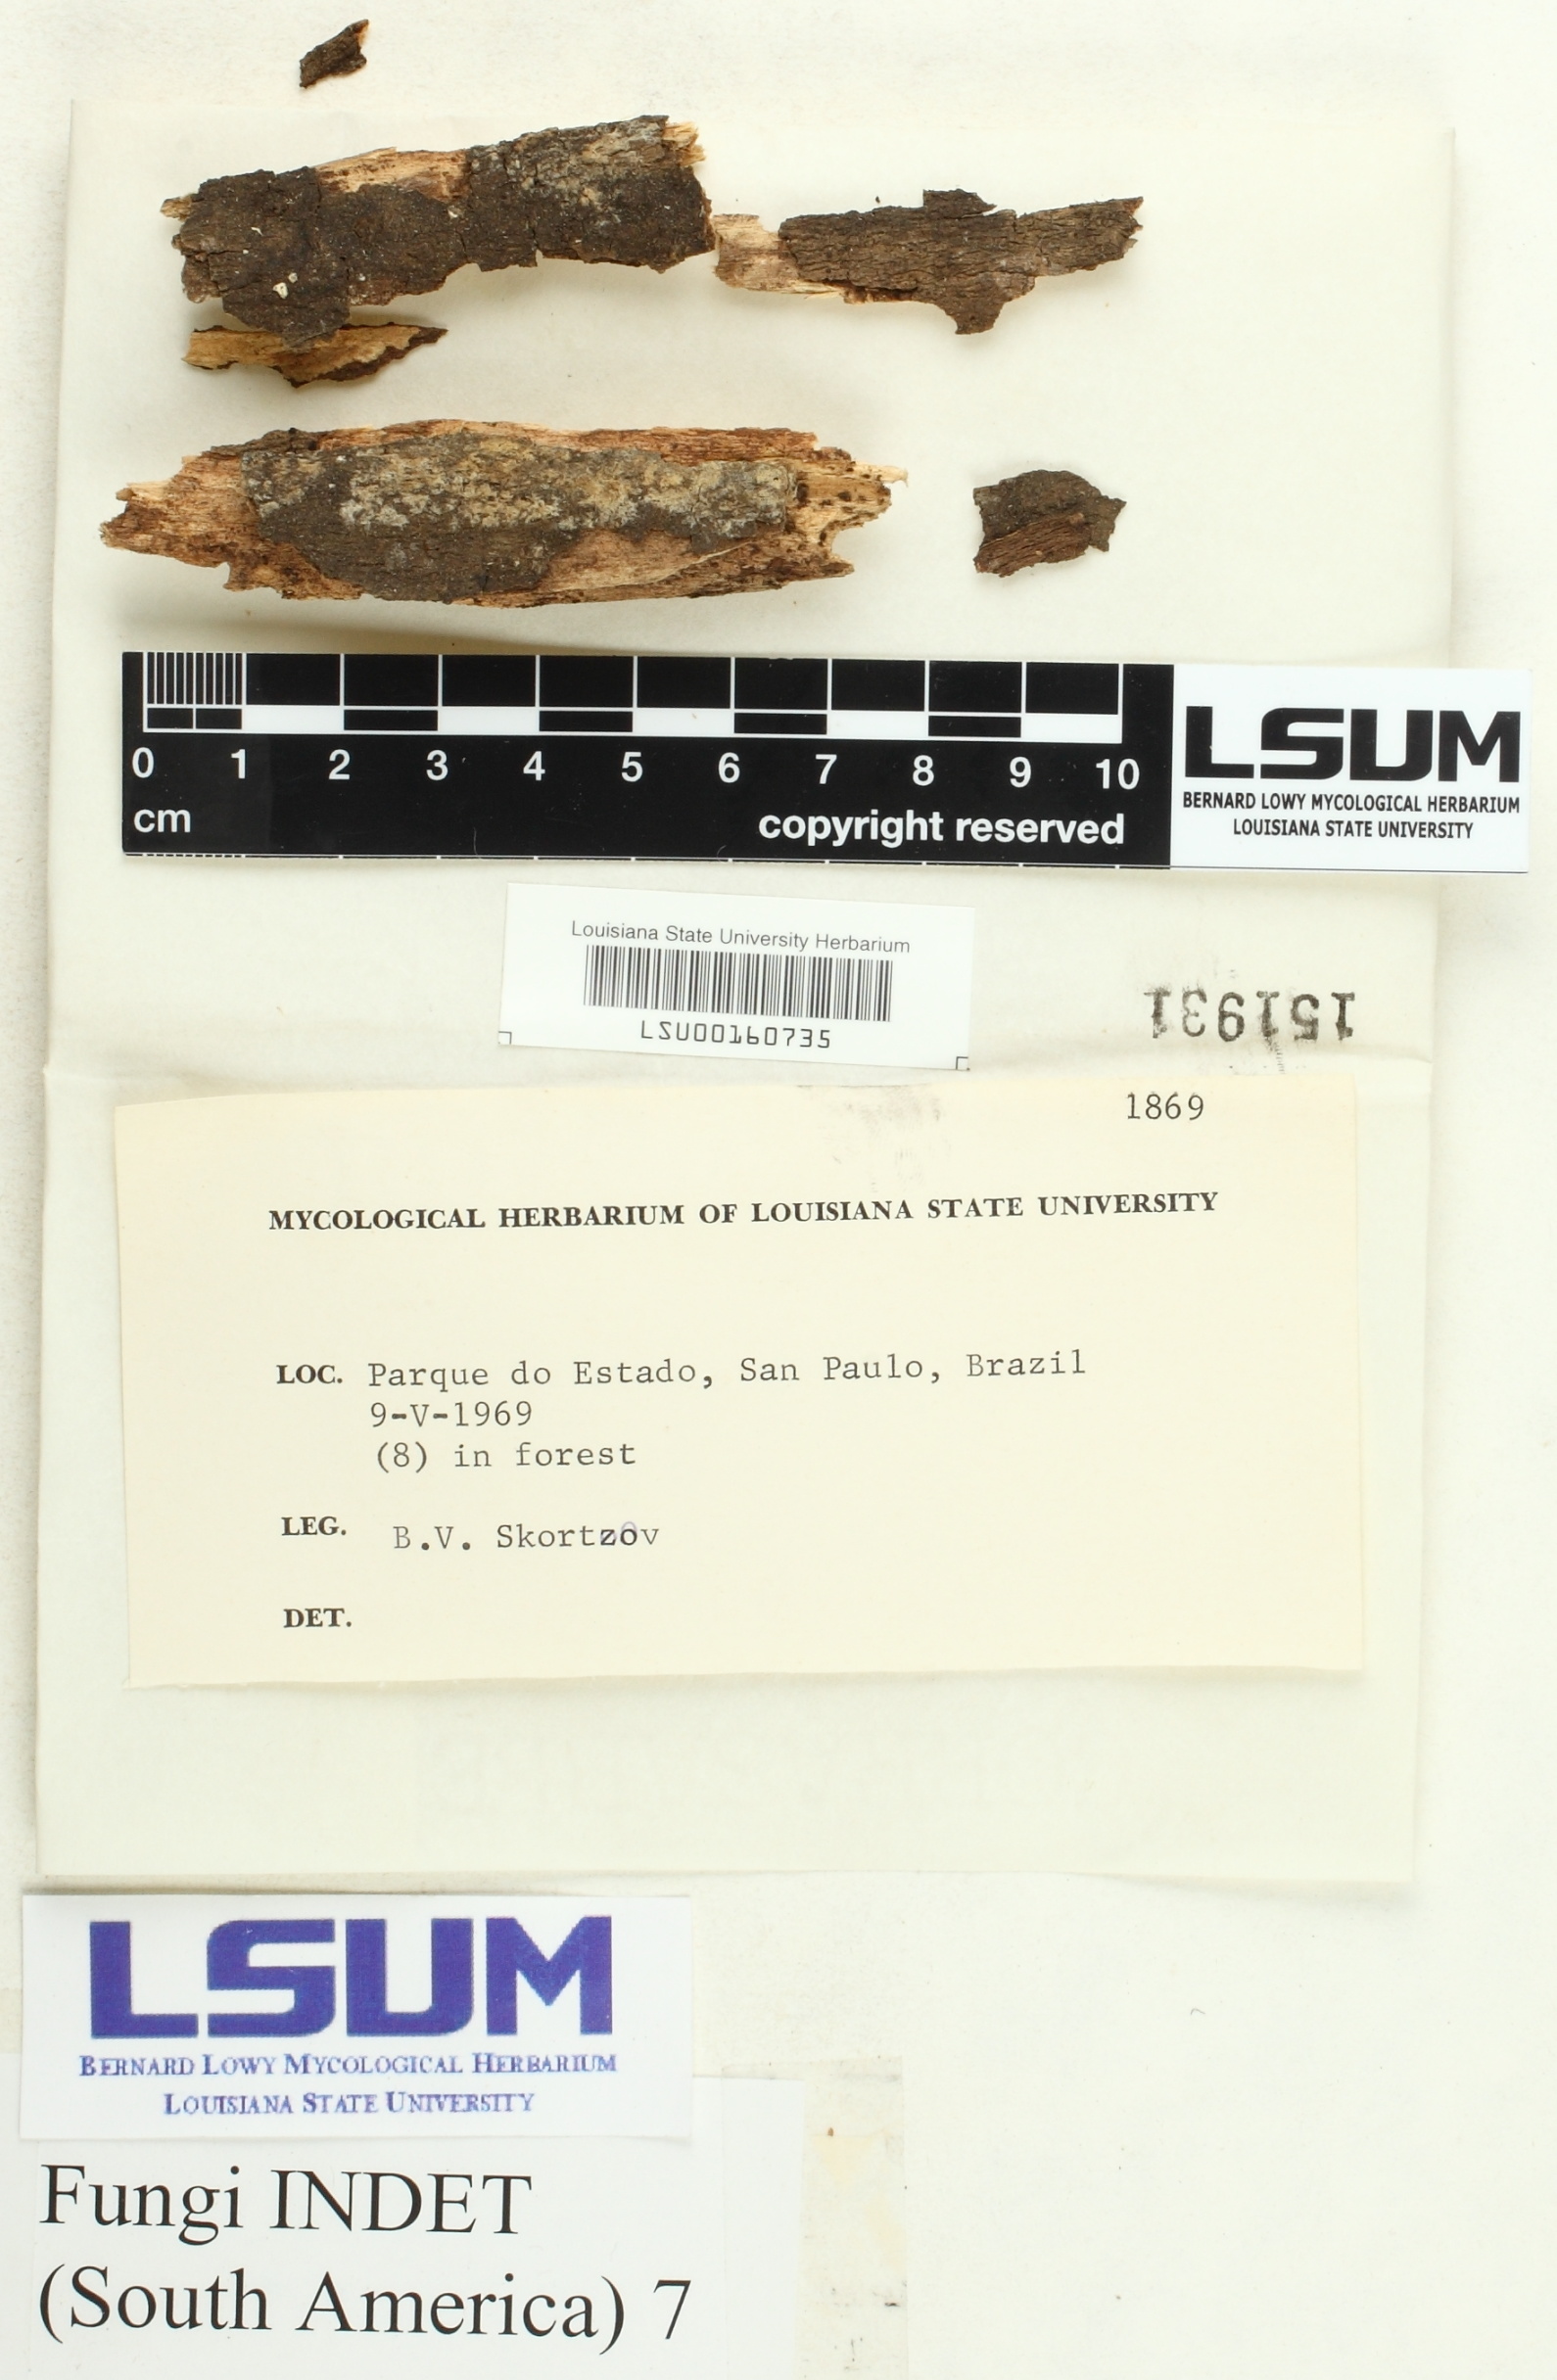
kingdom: Fungi
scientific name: Fungi
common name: Fungi
